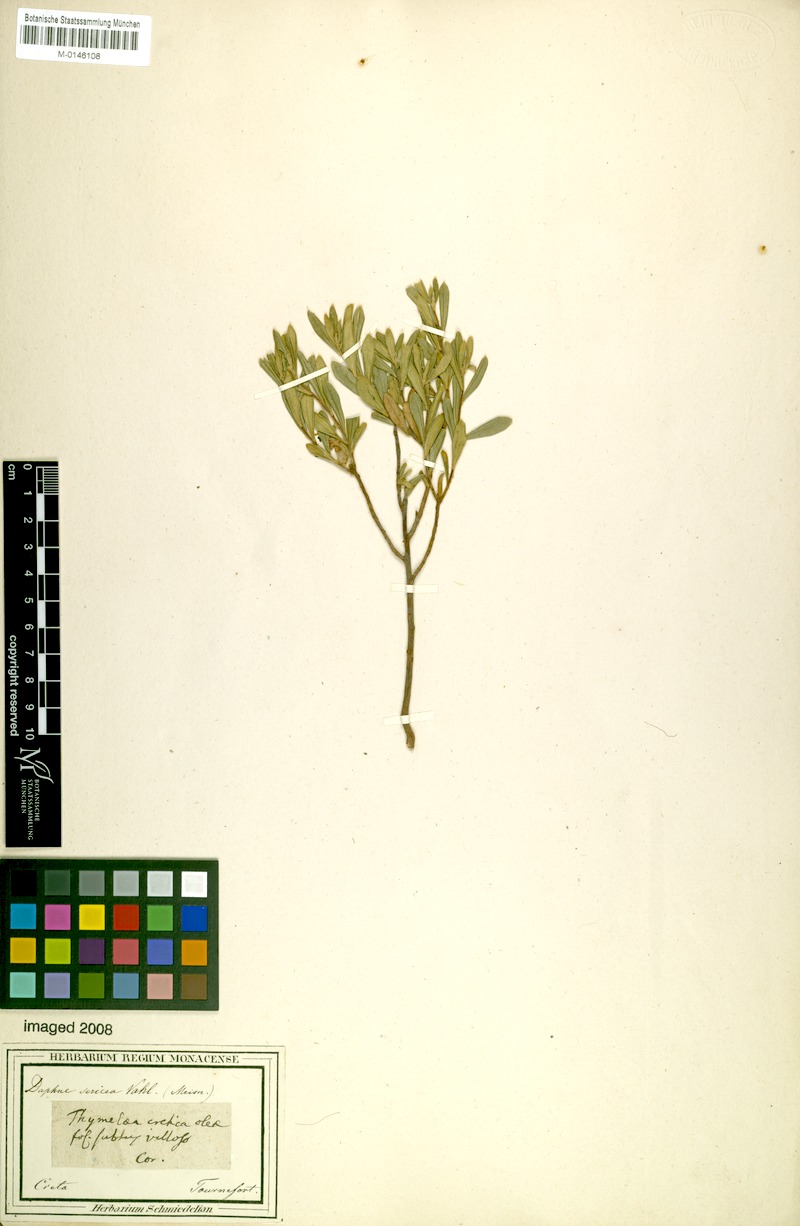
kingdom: Plantae
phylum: Tracheophyta
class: Magnoliopsida
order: Malvales
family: Thymelaeaceae
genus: Daphne
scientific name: Daphne sericea
